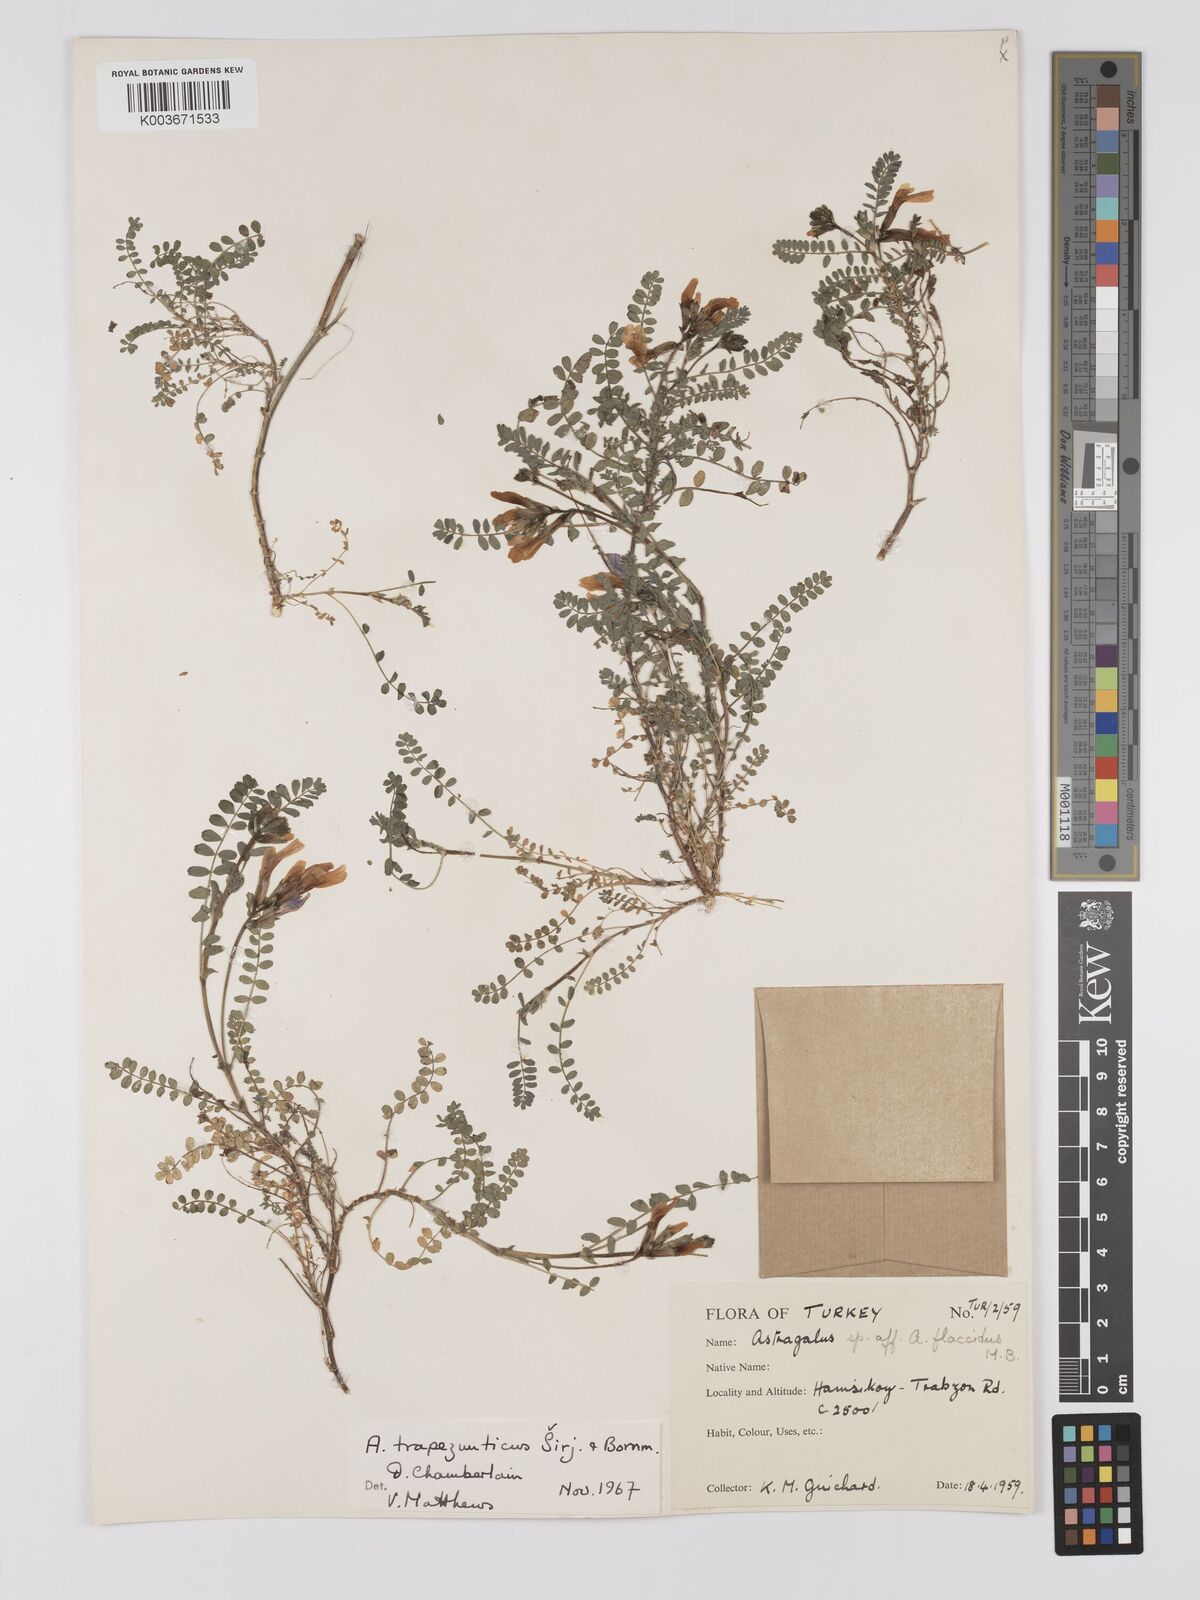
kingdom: Plantae
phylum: Tracheophyta
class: Magnoliopsida
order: Fabales
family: Fabaceae
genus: Astragalus
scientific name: Astragalus viridissimus
